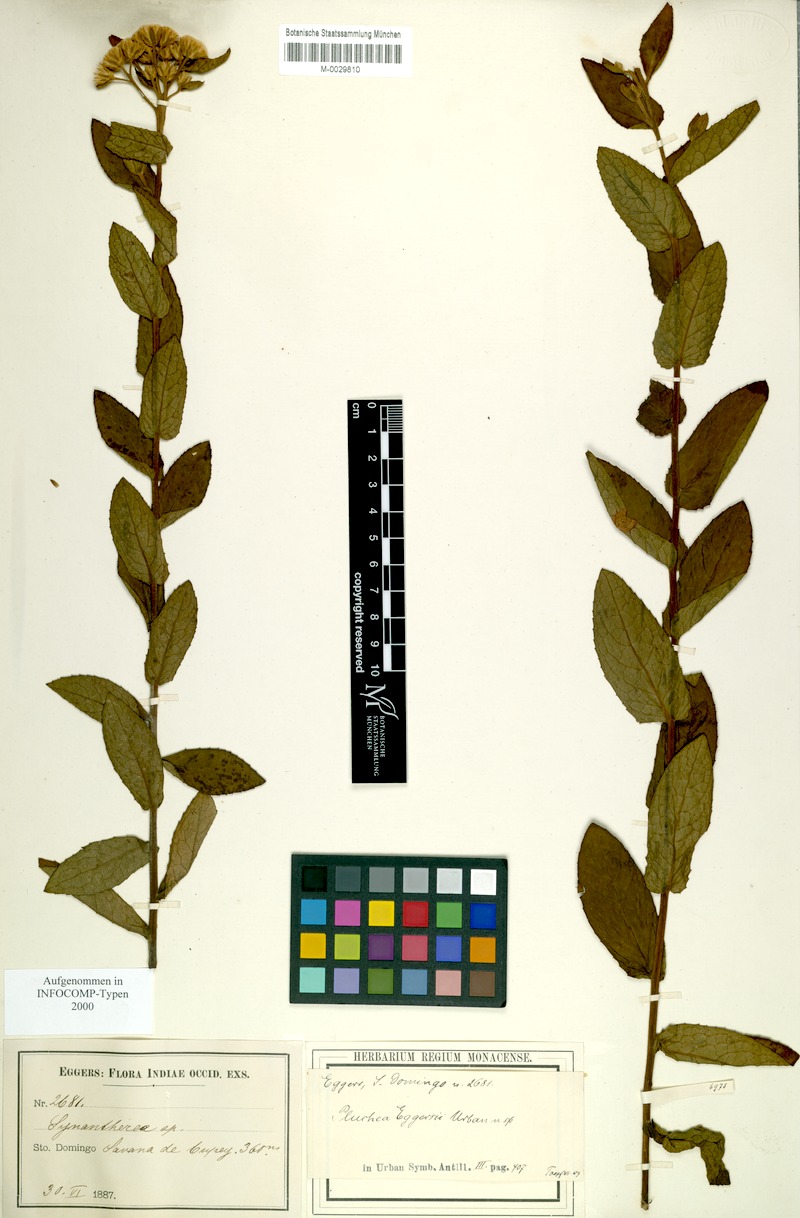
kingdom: Plantae
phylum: Tracheophyta
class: Magnoliopsida
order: Asterales
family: Asteraceae
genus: Pluchea
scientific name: Pluchea baccharis
